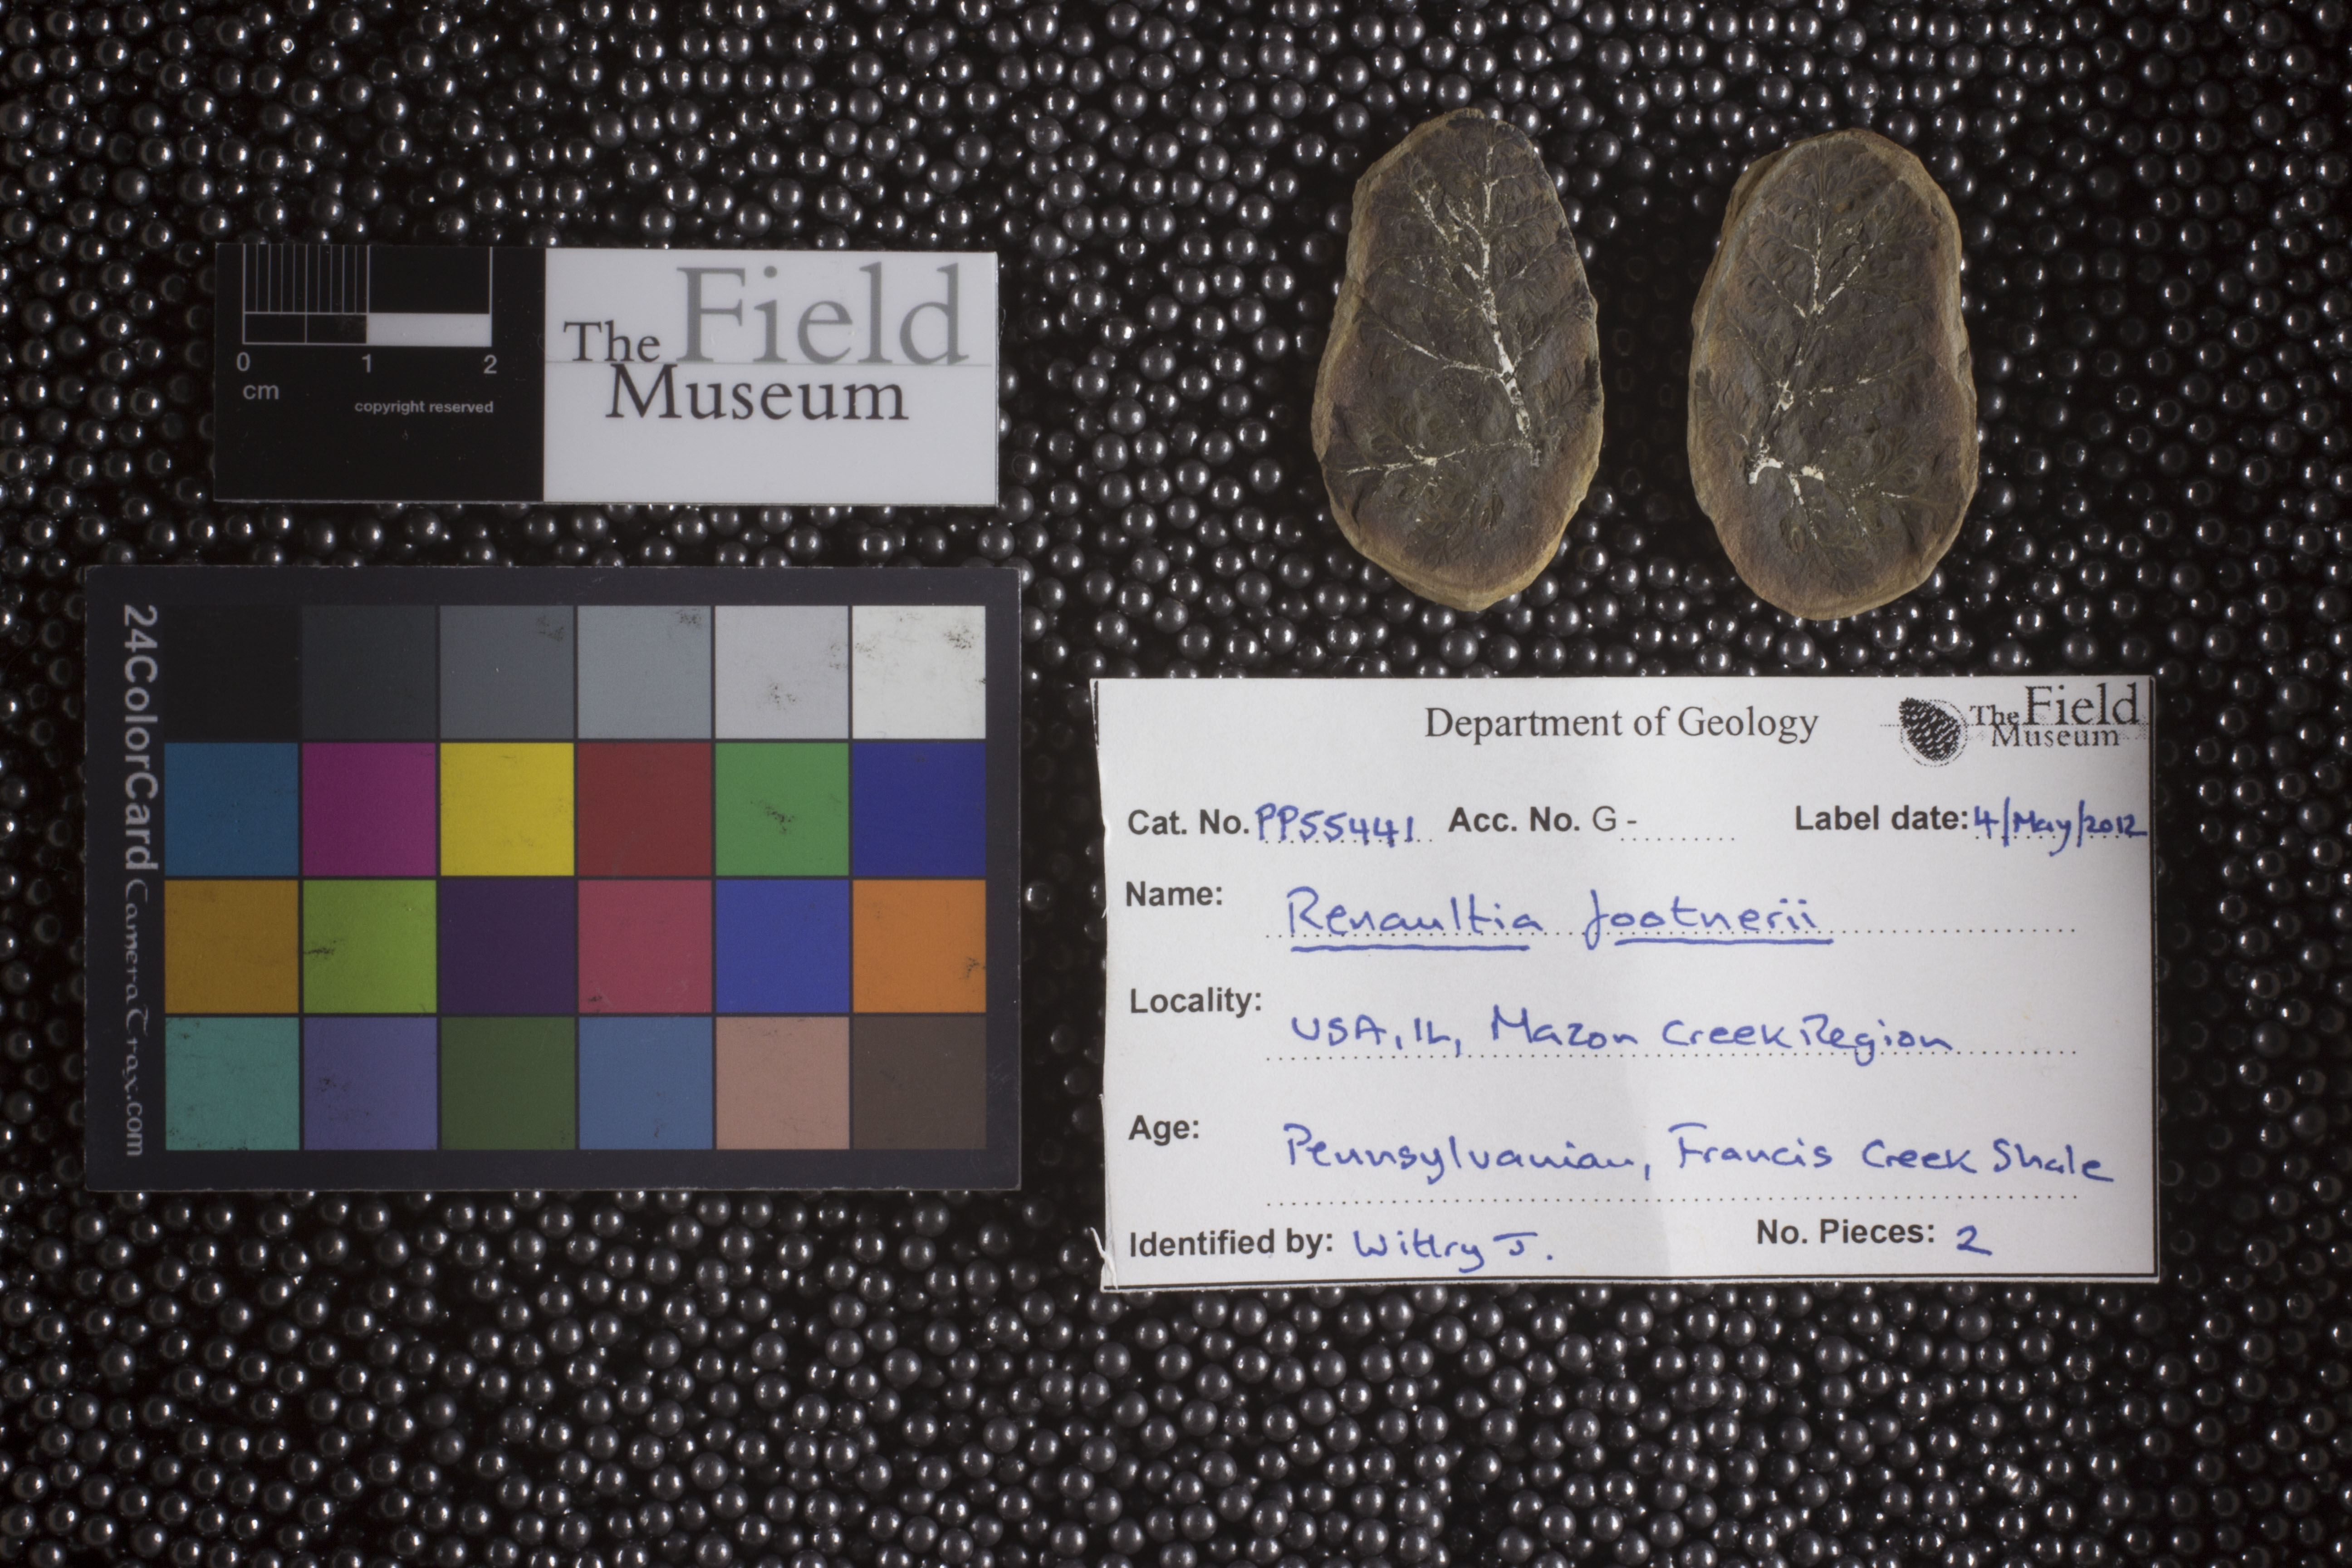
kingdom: Plantae
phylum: Tracheophyta
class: Polypodiopsida
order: Marattiales
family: Marattiaceae
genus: Renaultia
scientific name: Renaultia
